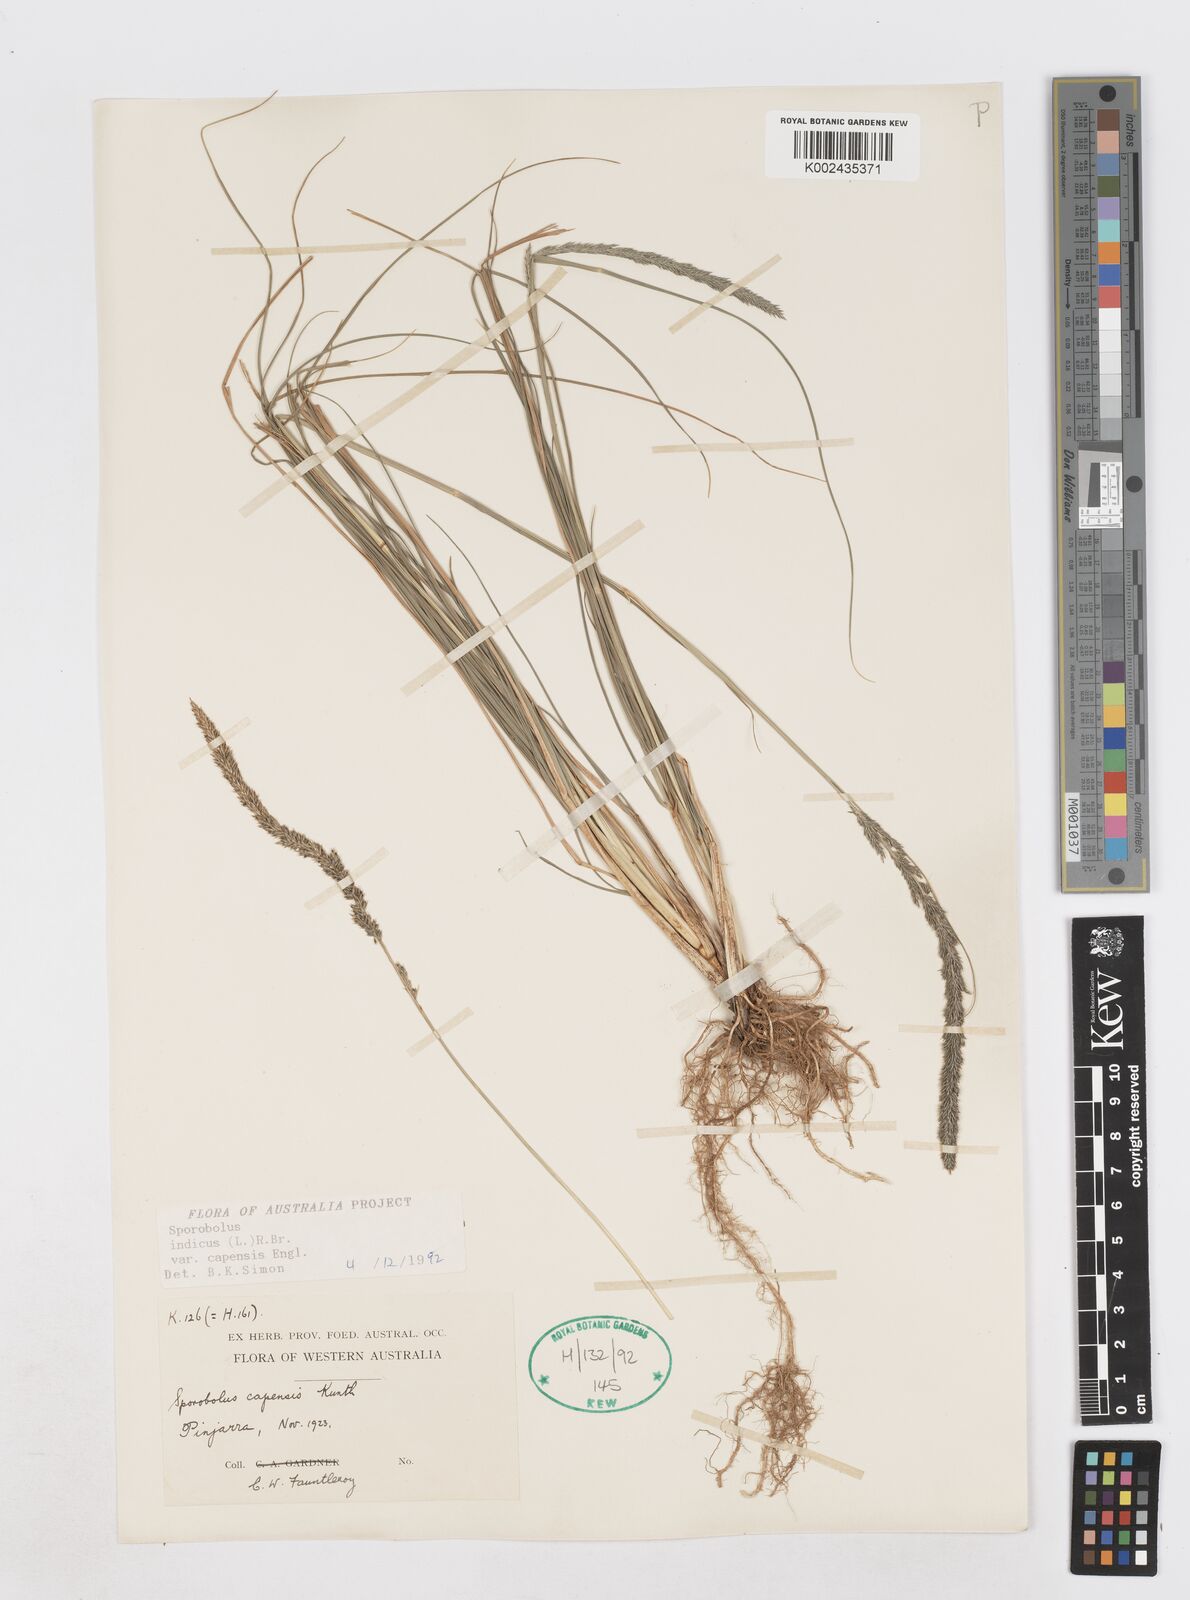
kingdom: Plantae
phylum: Tracheophyta
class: Liliopsida
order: Poales
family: Poaceae
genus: Sporobolus
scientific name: Sporobolus africanus
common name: African dropseed
